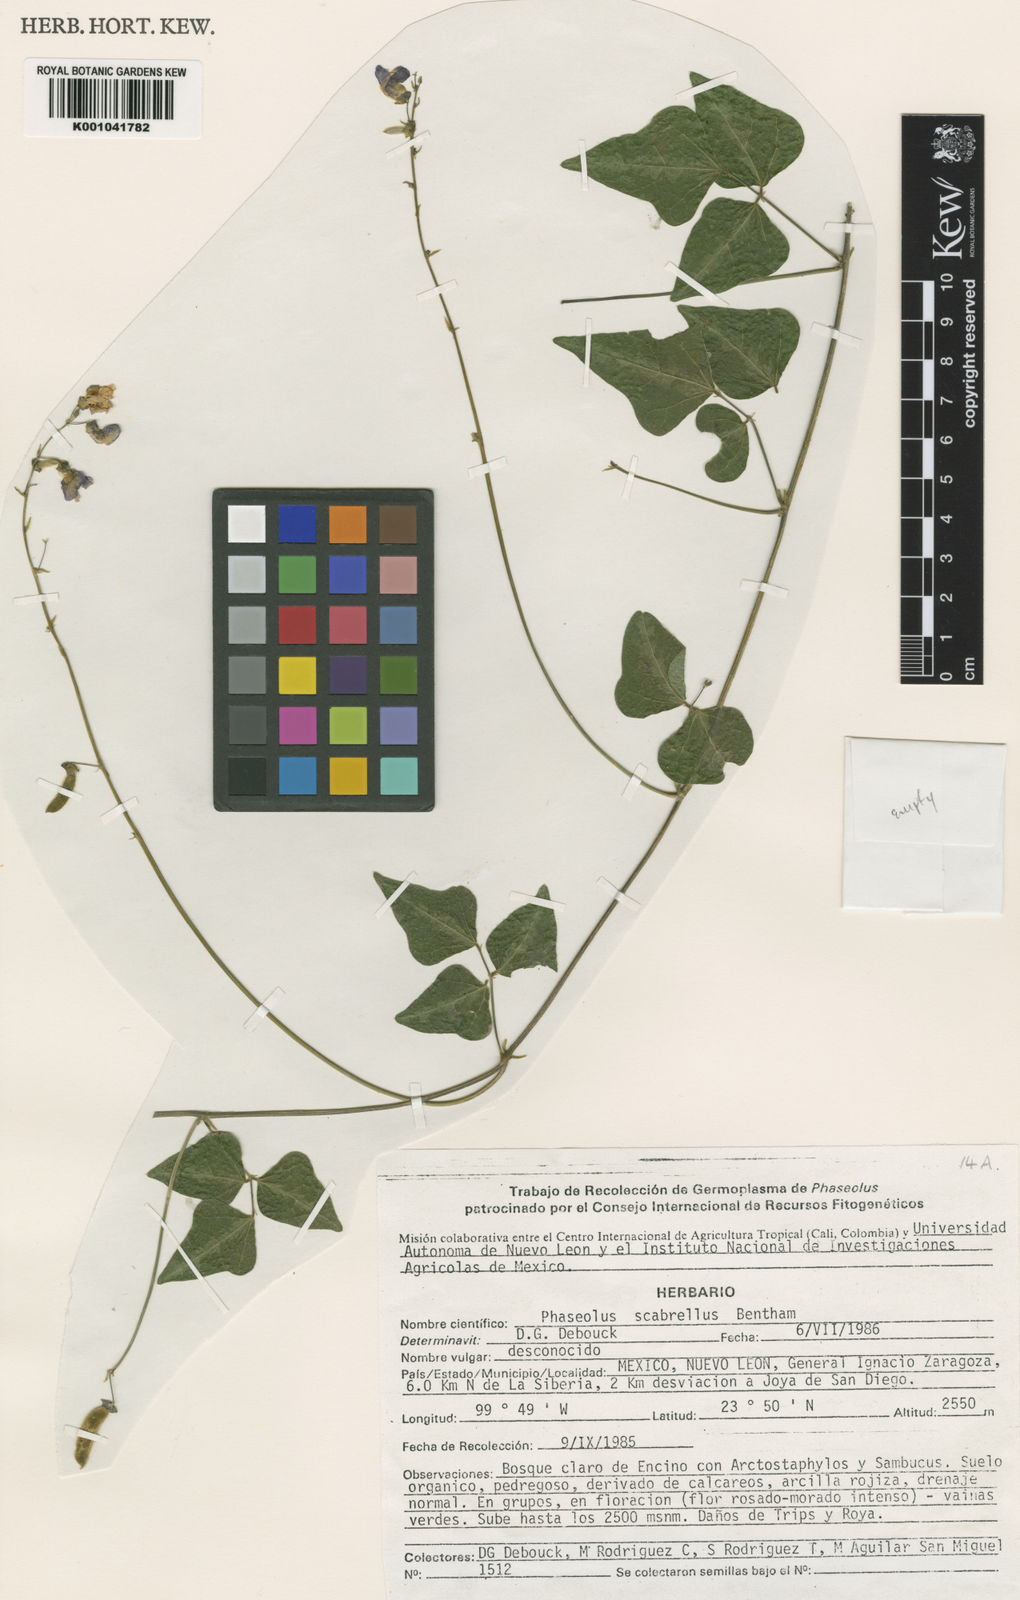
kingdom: Plantae
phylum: Tracheophyta
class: Magnoliopsida
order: Fabales
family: Fabaceae
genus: Phaseolus
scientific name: Phaseolus pedicellatus
